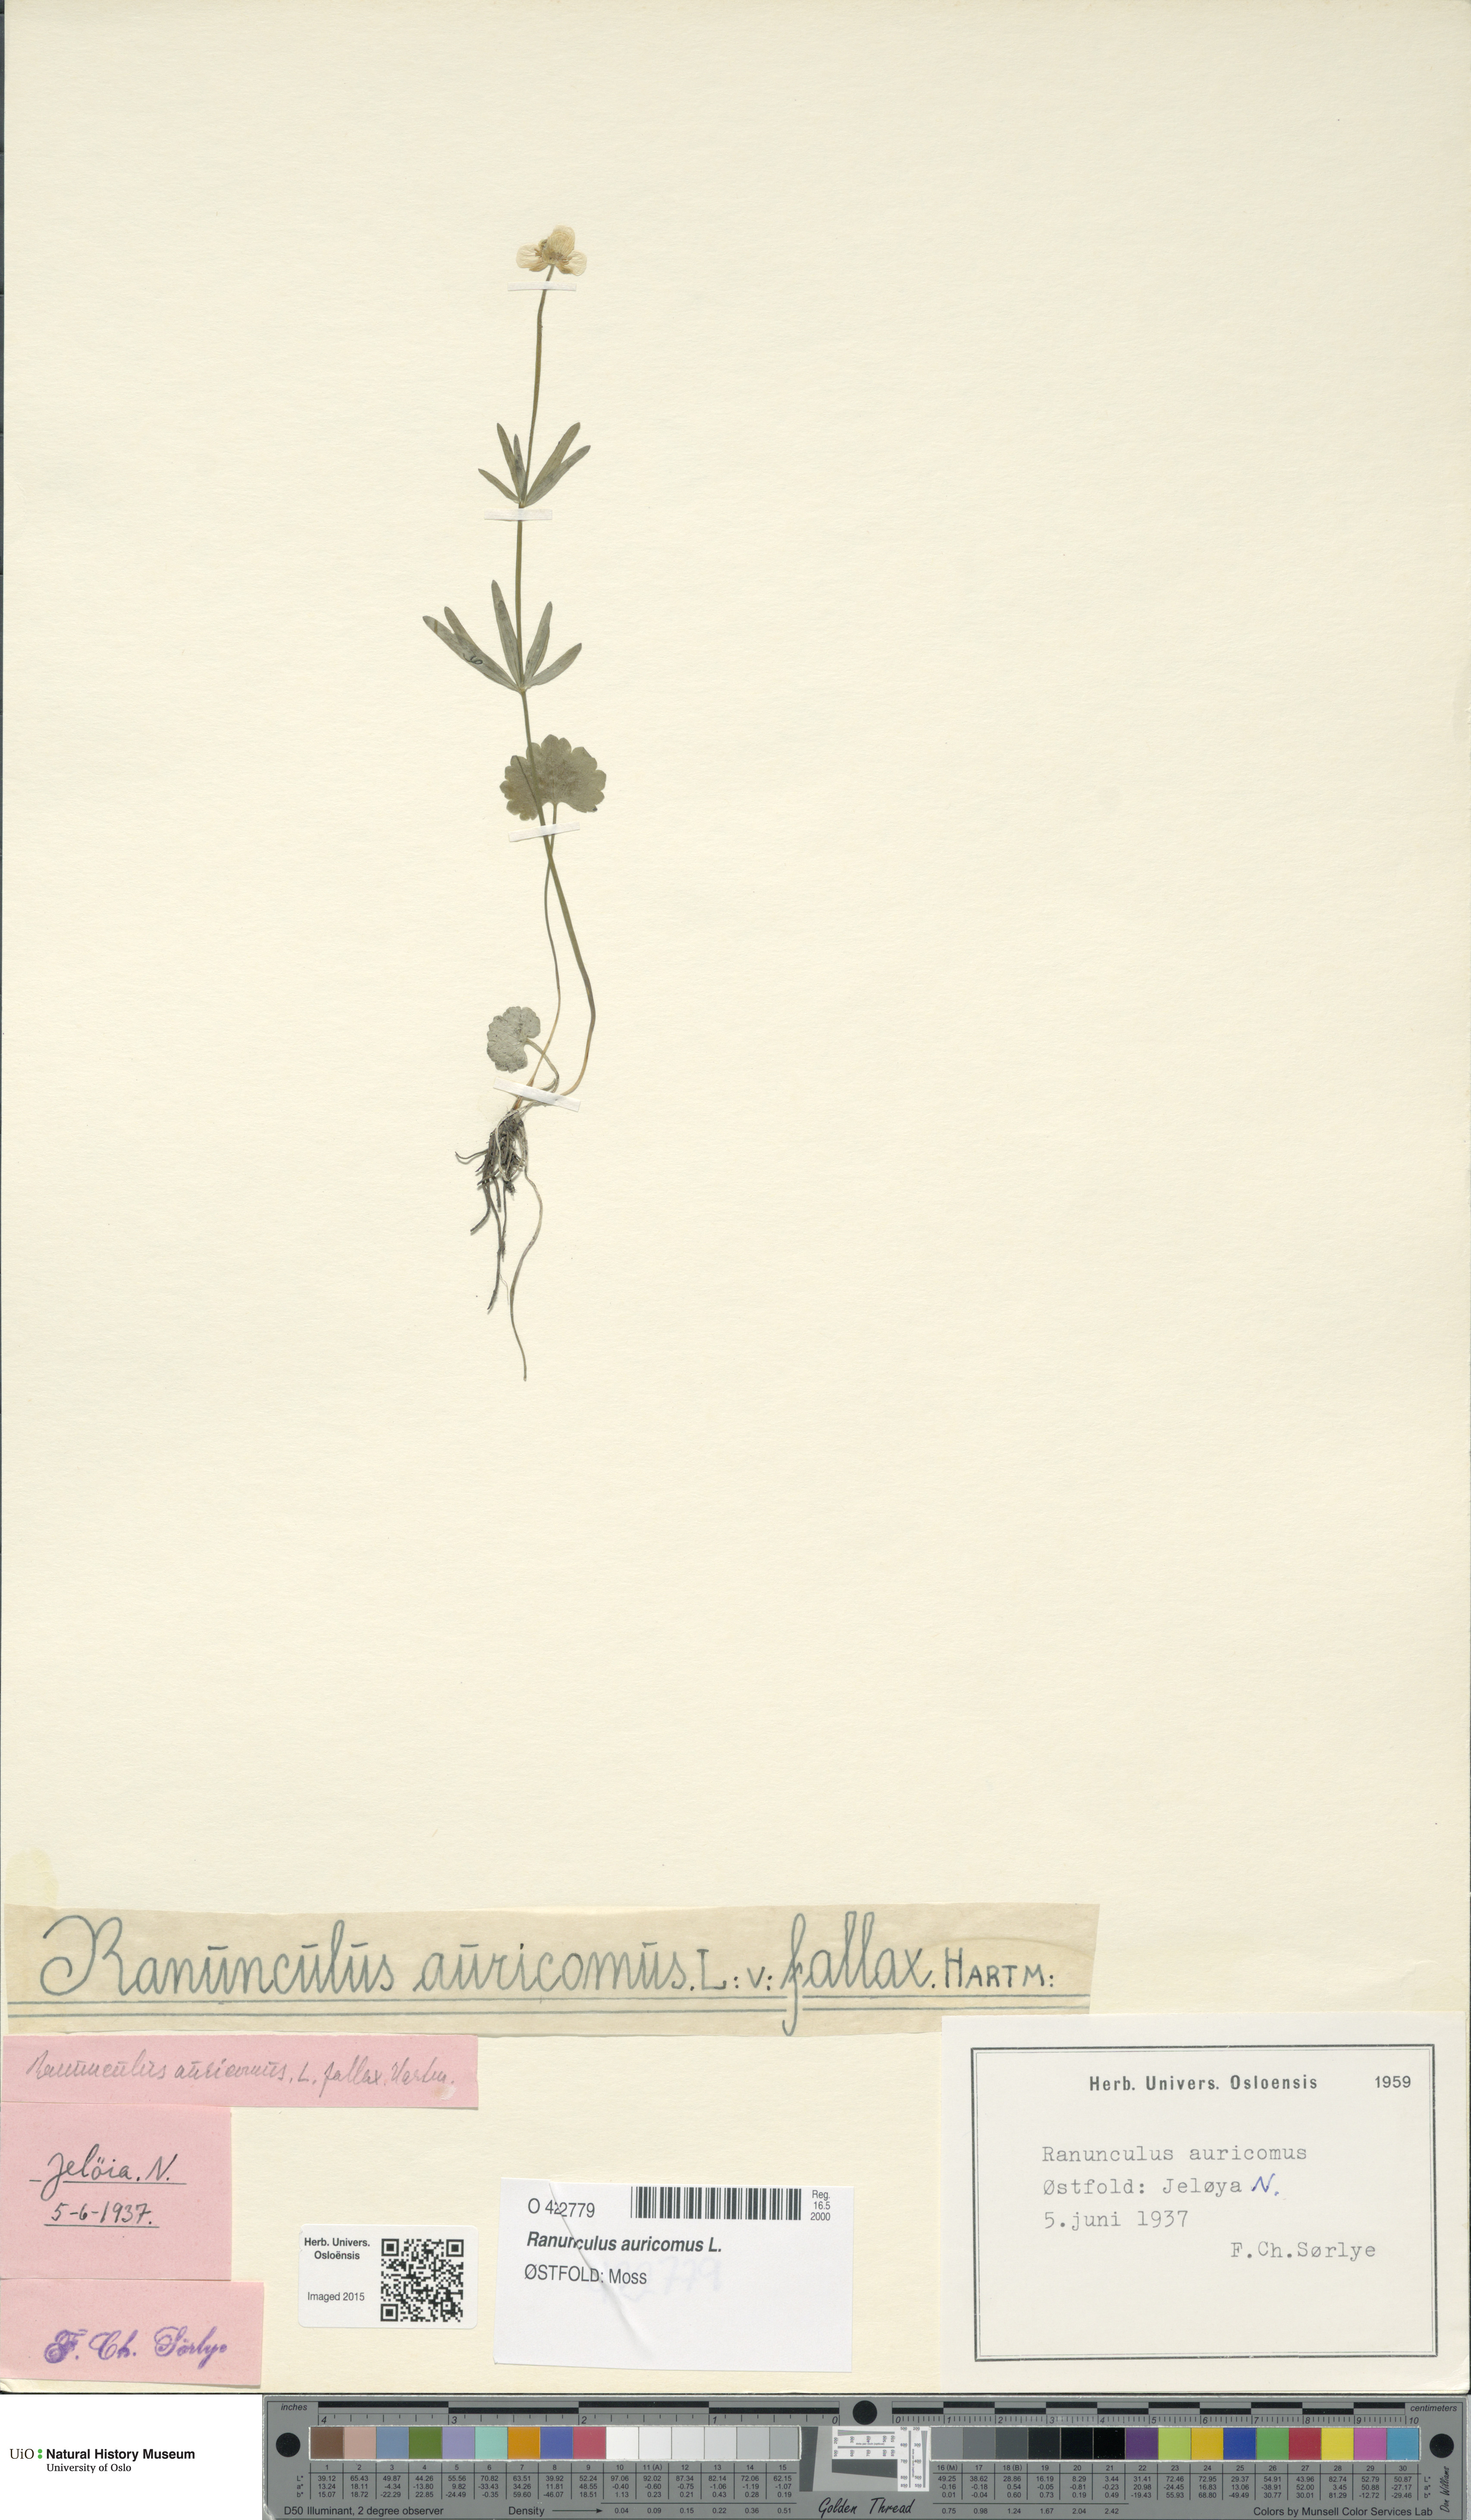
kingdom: Plantae
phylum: Tracheophyta
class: Magnoliopsida
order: Ranunculales
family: Ranunculaceae
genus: Ranunculus
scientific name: Ranunculus auricomus
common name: Goldilocks buttercup
